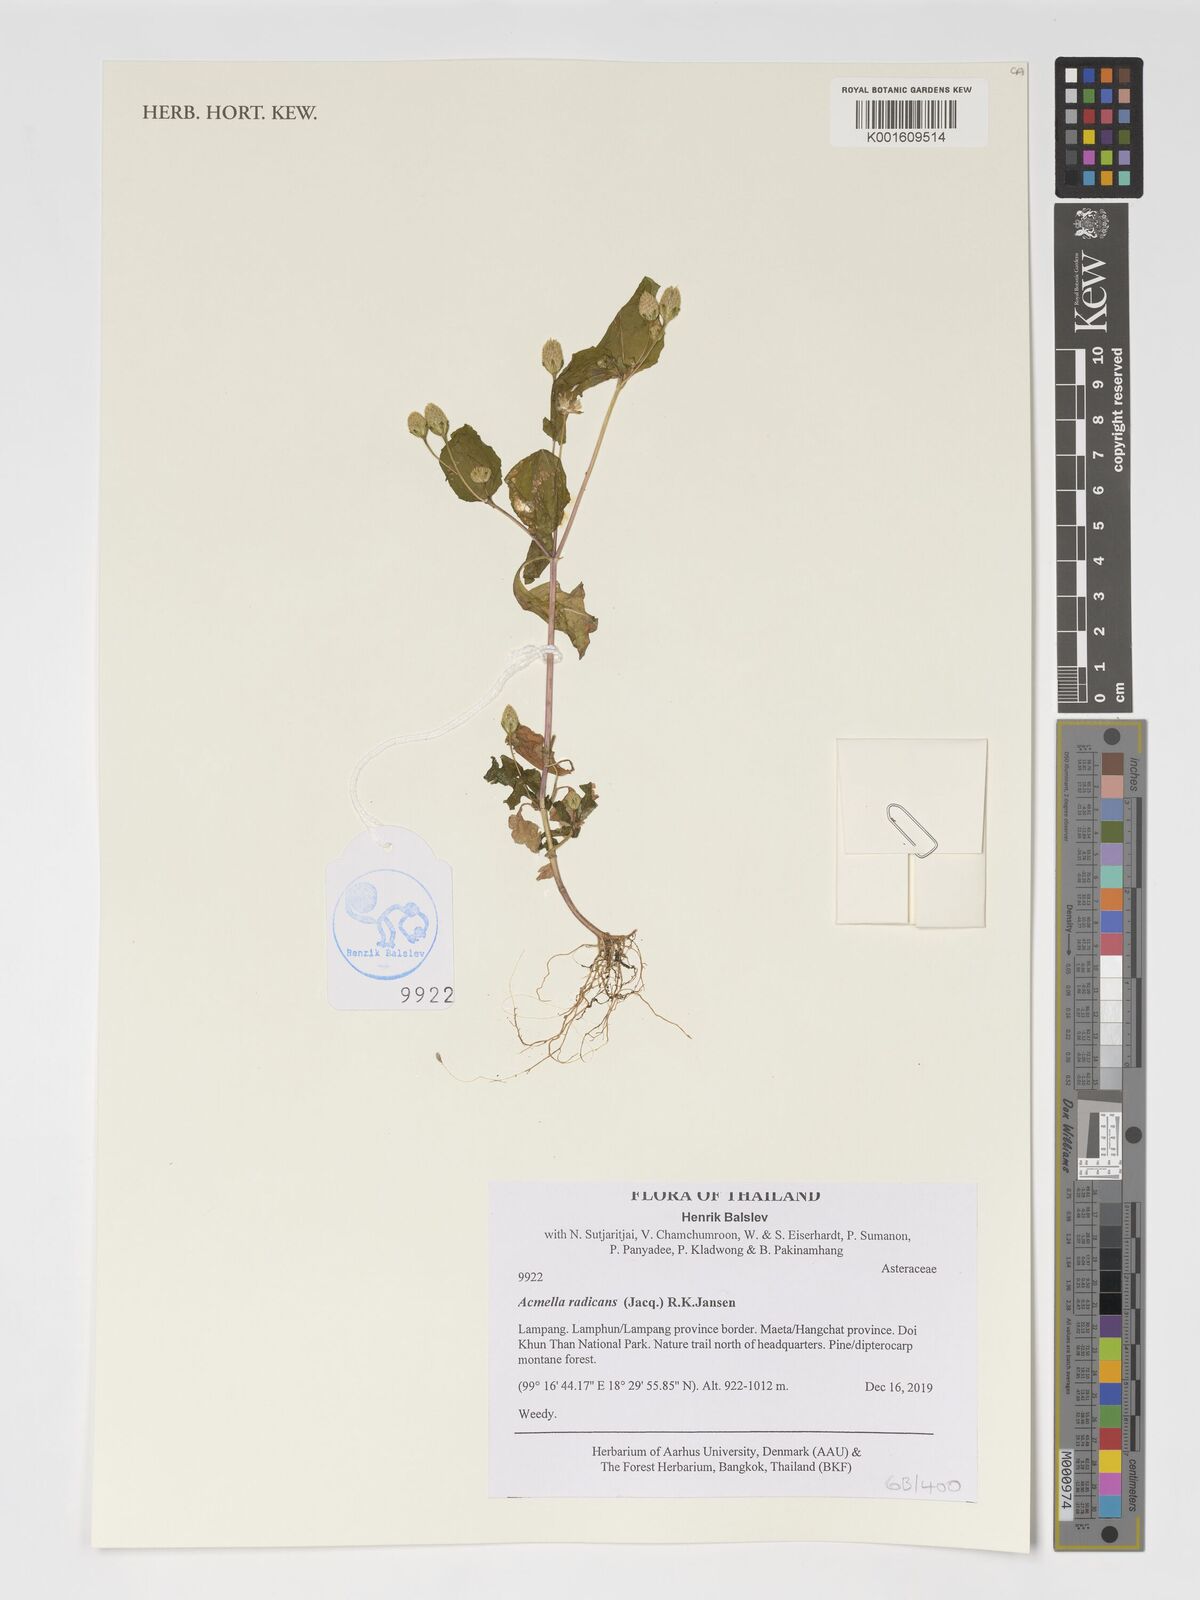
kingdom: Plantae
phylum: Tracheophyta
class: Magnoliopsida
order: Asterales
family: Asteraceae
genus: Acmella
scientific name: Acmella radicans
